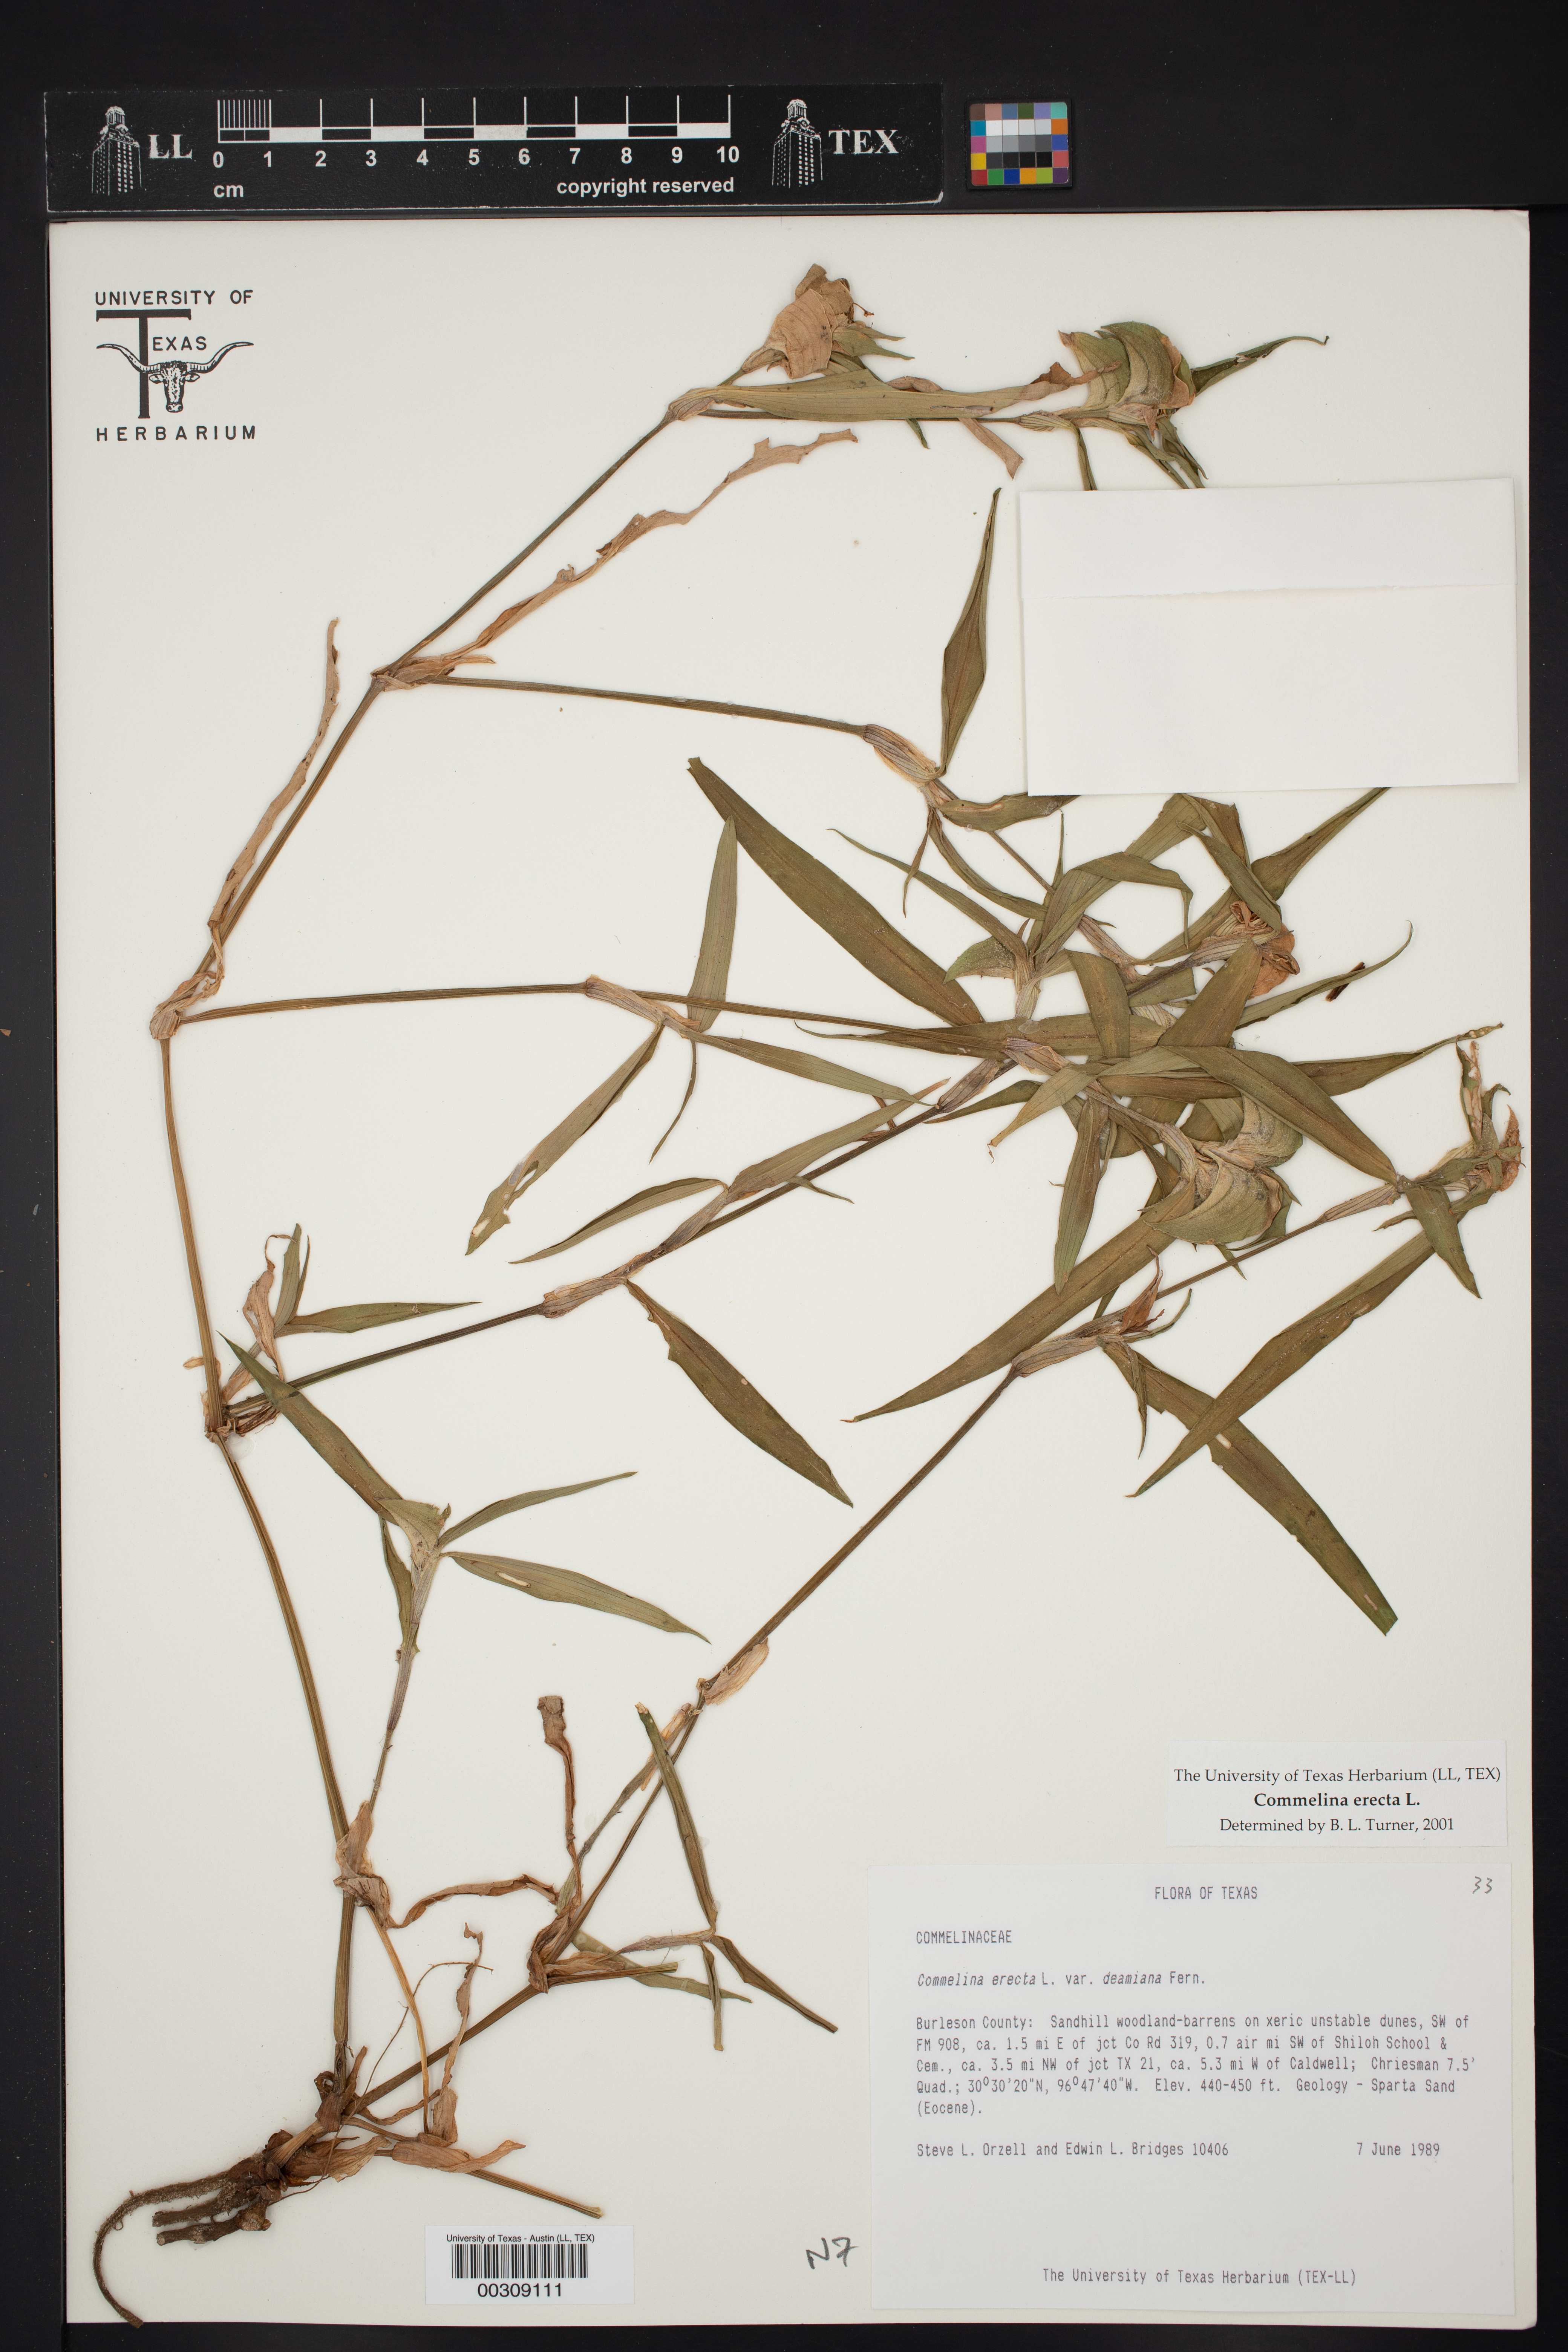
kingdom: Plantae
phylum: Tracheophyta
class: Liliopsida
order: Commelinales
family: Commelinaceae
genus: Commelina
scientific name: Commelina erecta
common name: Blousel blommetjie
